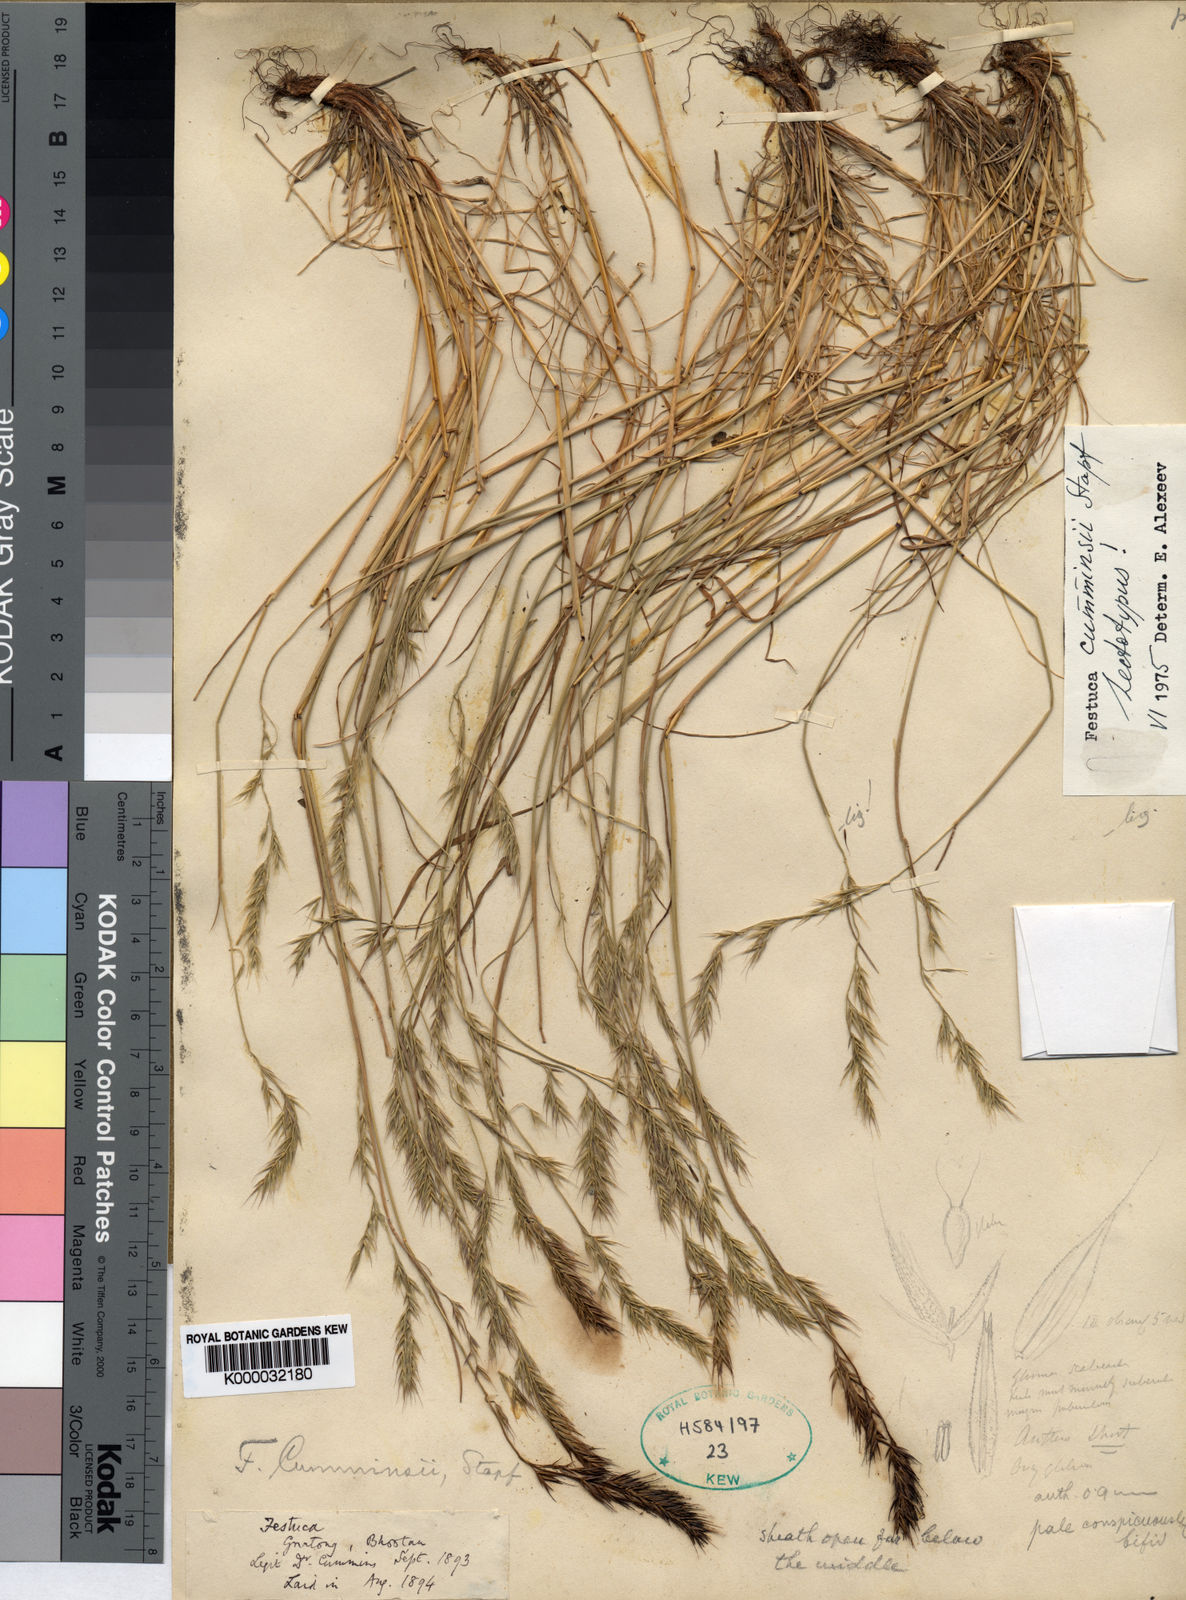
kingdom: Plantae
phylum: Tracheophyta
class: Liliopsida
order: Poales
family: Poaceae
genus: Festuca
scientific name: Festuca cumminsii
